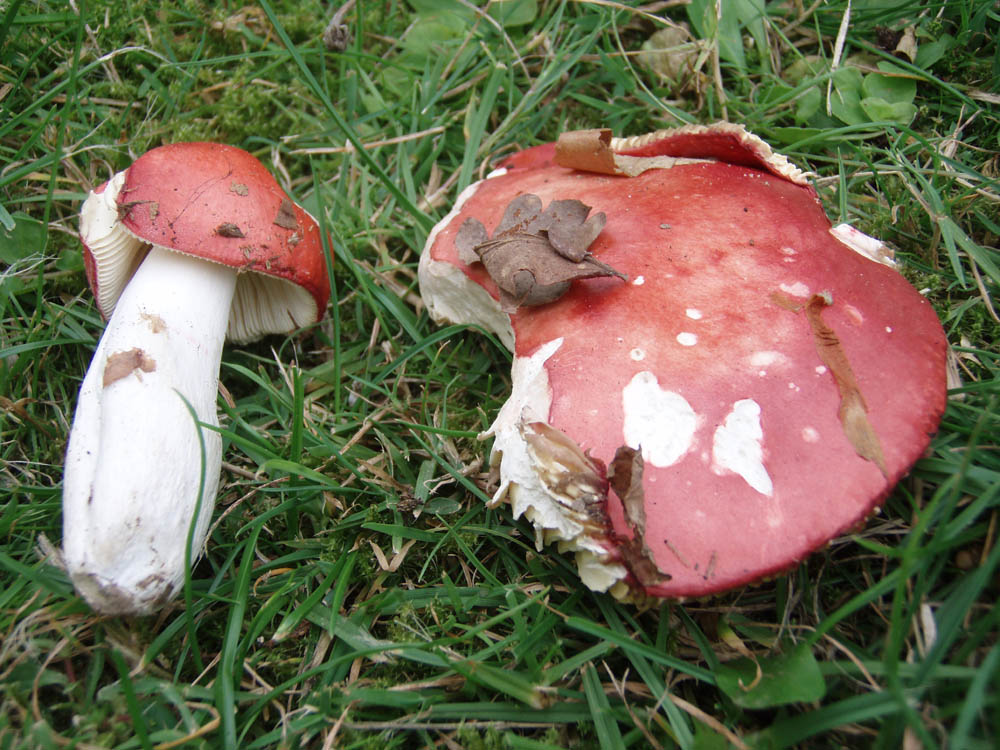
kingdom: Fungi
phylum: Basidiomycota
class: Agaricomycetes
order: Russulales
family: Russulaceae
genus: Russula
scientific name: Russula pseudointegra
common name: cinnoberrød skørhat
